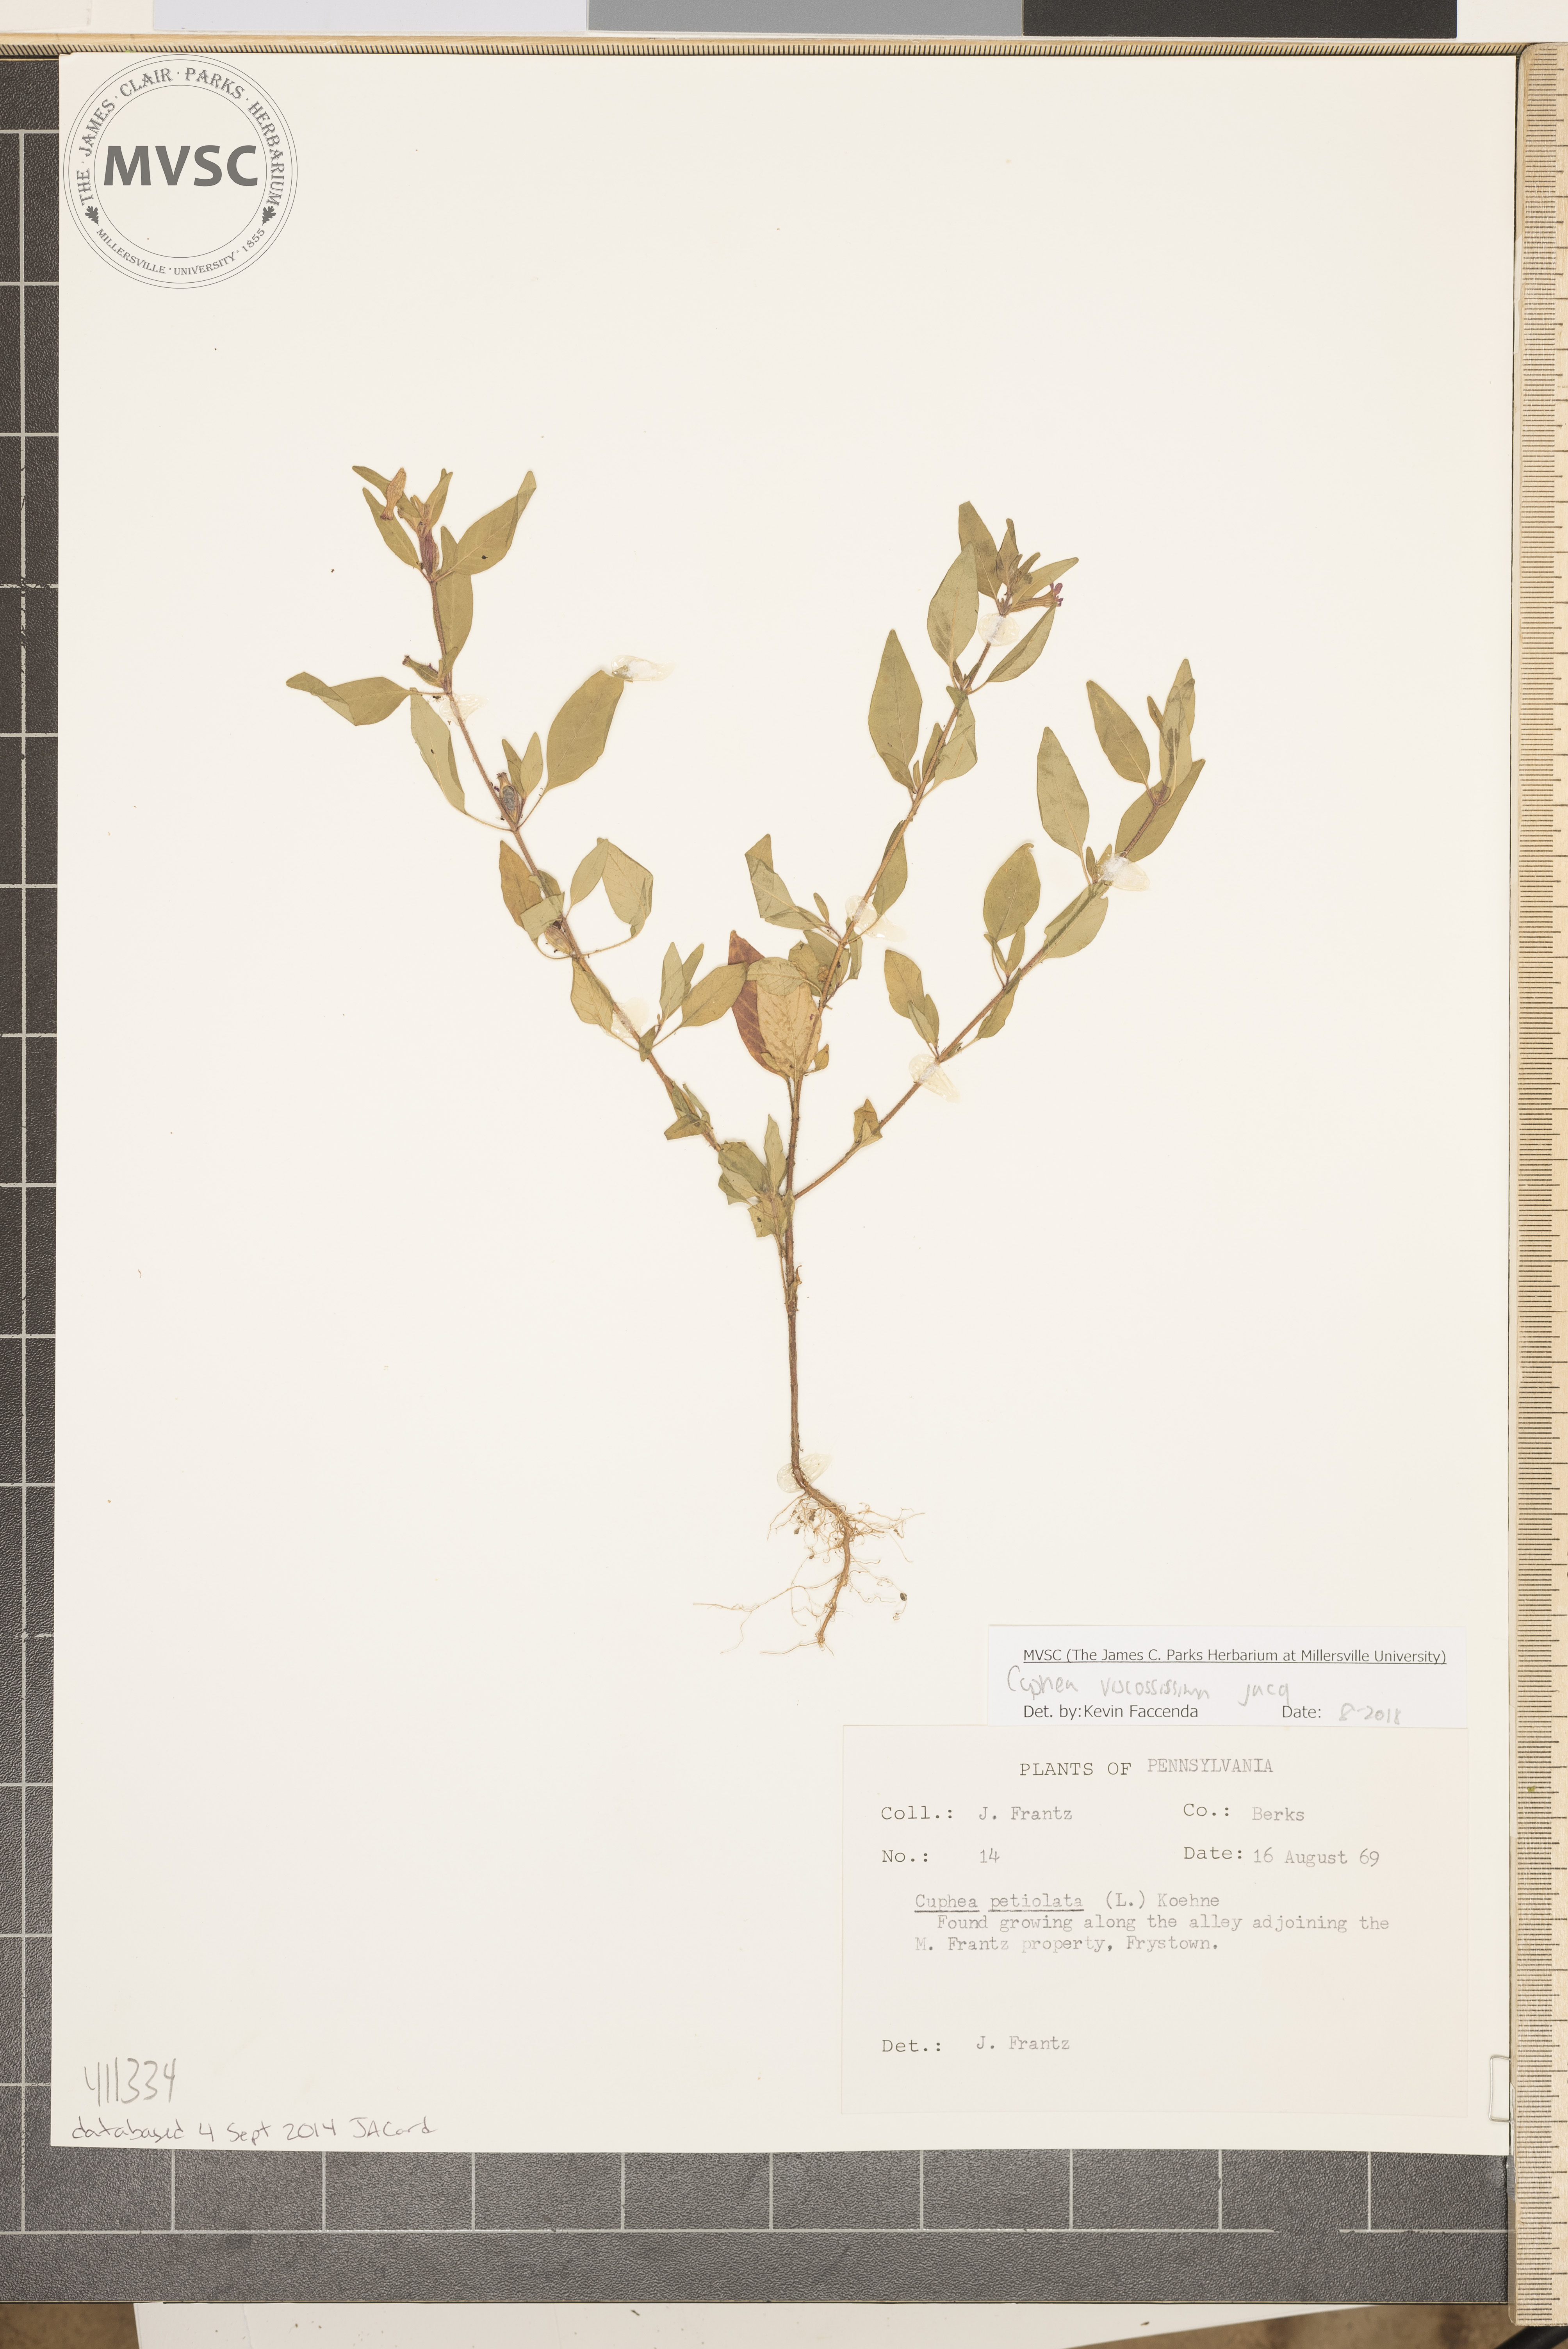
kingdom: Plantae
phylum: Tracheophyta
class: Magnoliopsida
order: Myrtales
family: Lythraceae
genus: Cuphea
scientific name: Cuphea viscosissima
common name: Clammy cuphea
